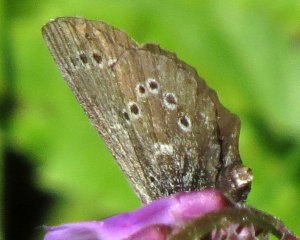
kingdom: Animalia
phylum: Arthropoda
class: Insecta
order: Lepidoptera
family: Lycaenidae
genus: Glaucopsyche
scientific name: Glaucopsyche lygdamus
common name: Silvery Blue
